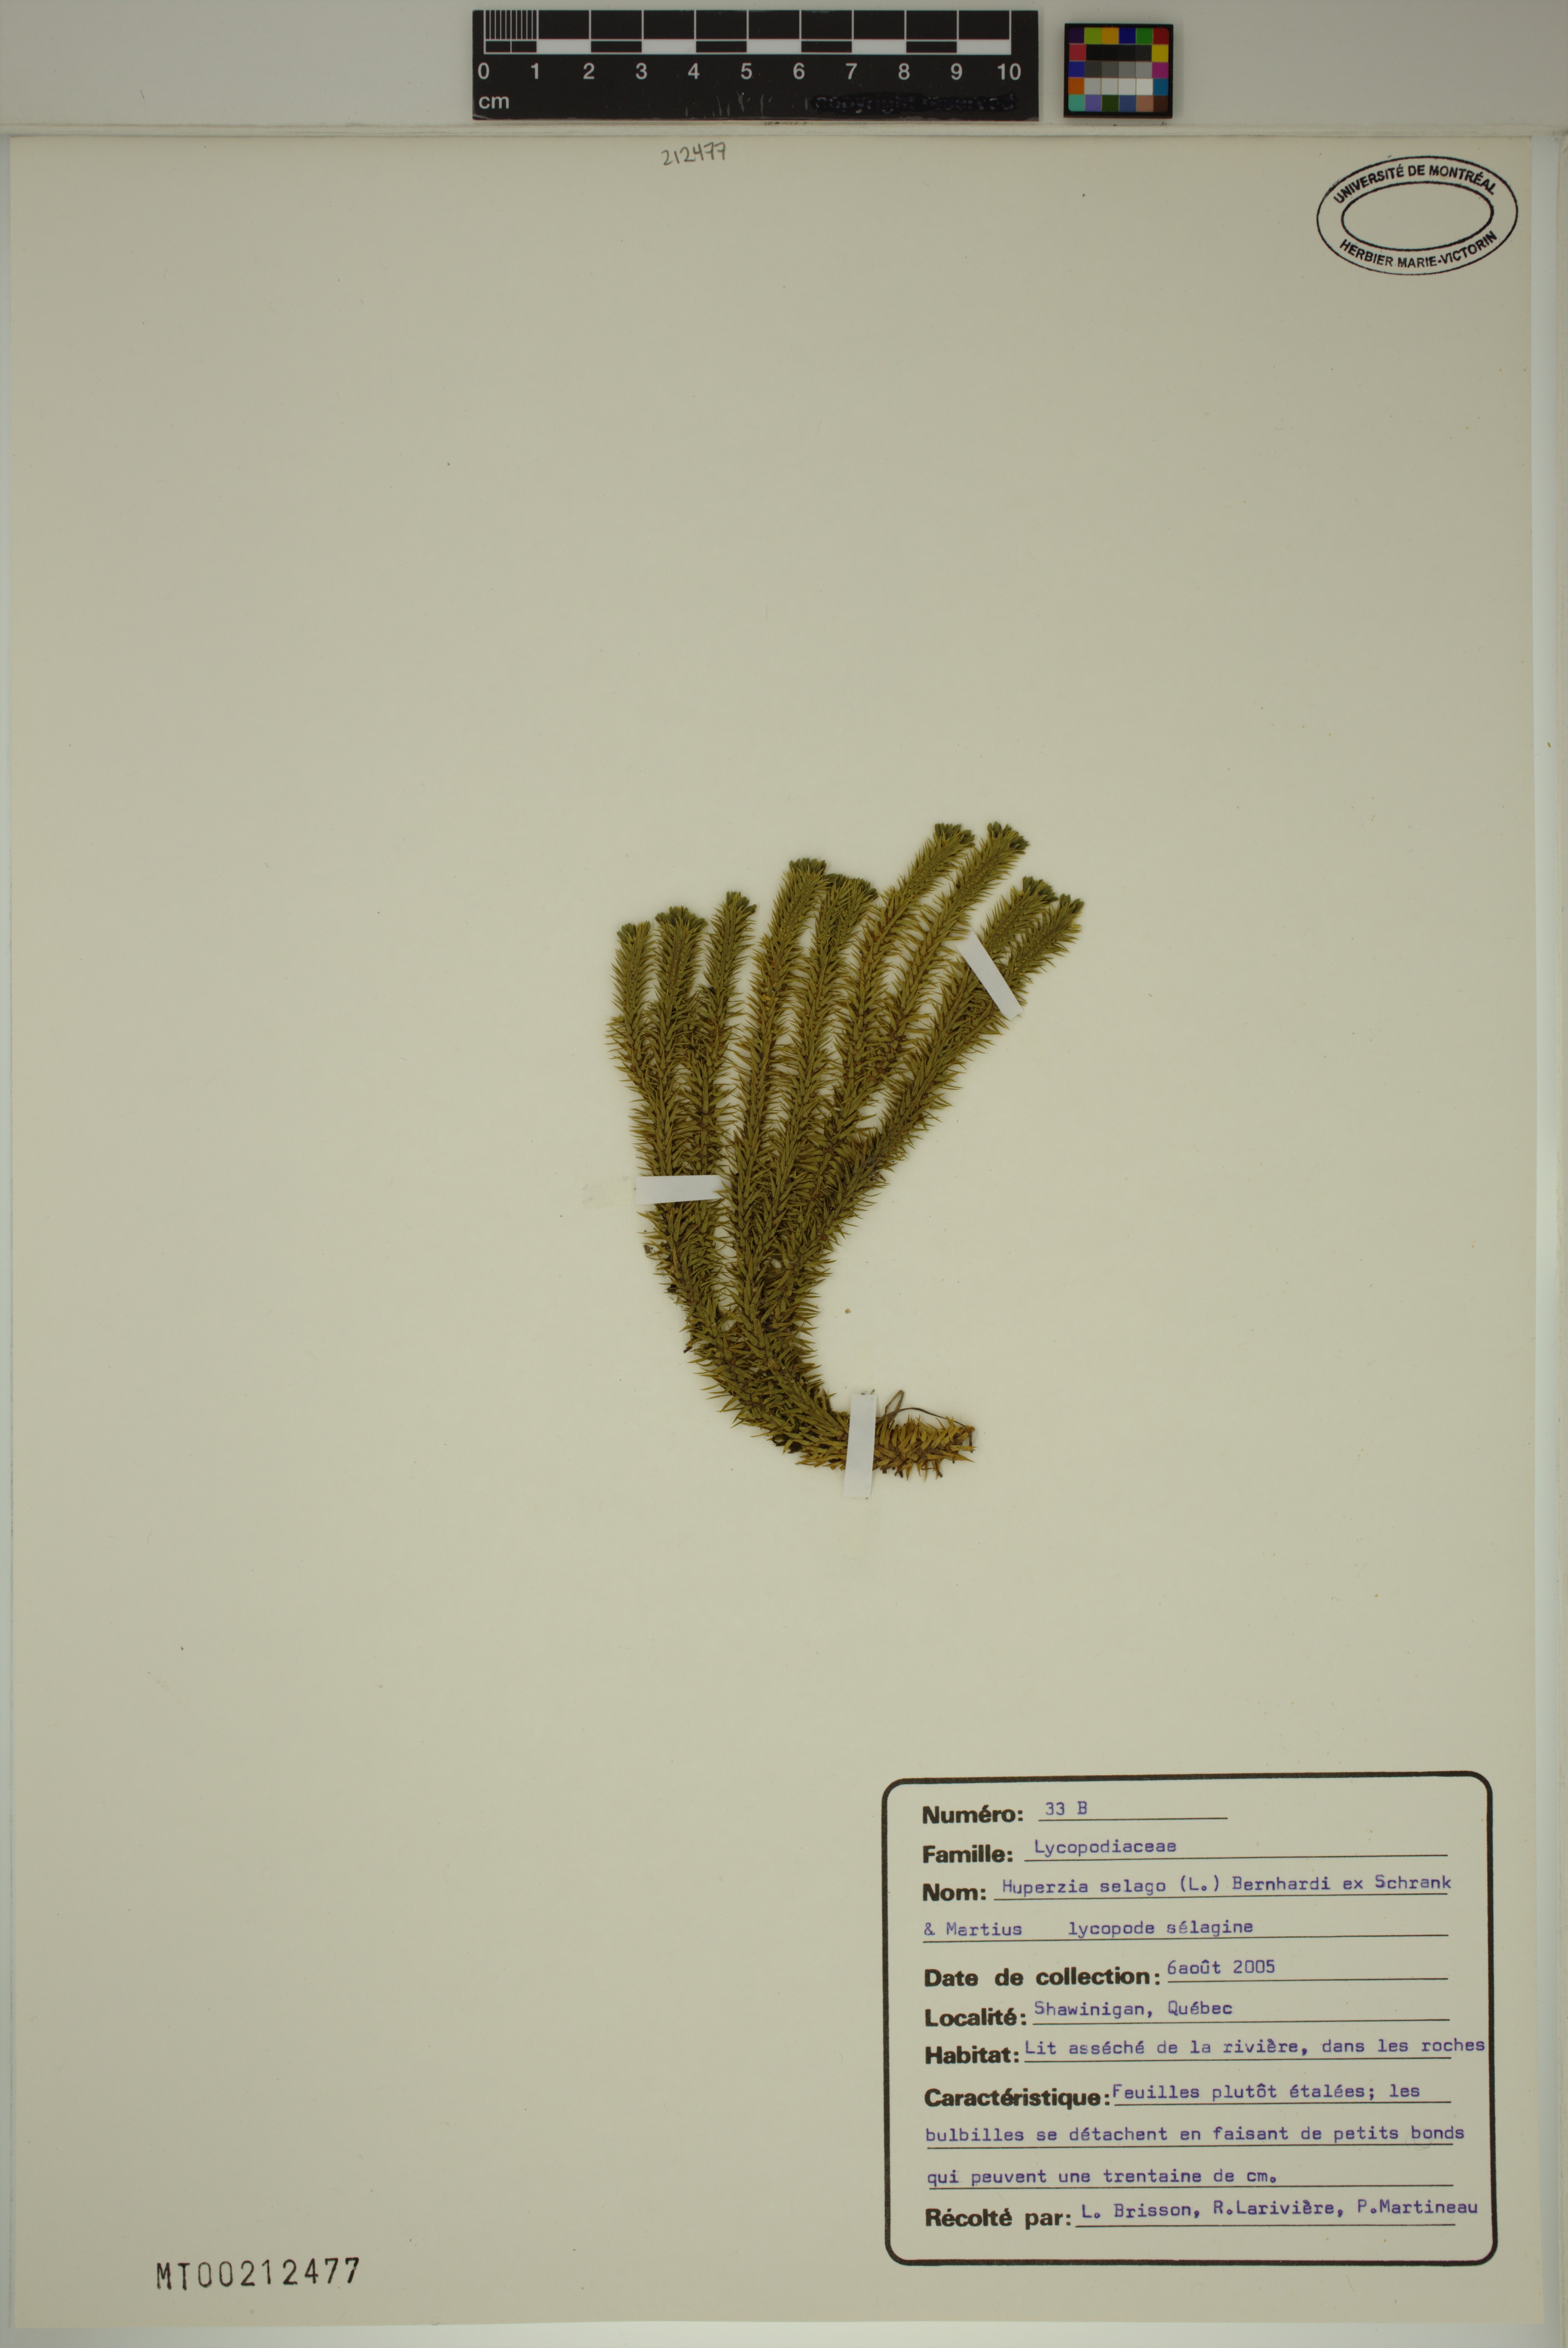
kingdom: Plantae
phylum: Tracheophyta
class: Lycopodiopsida
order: Lycopodiales
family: Lycopodiaceae
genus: Huperzia
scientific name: Huperzia selago
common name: Northern firmoss
